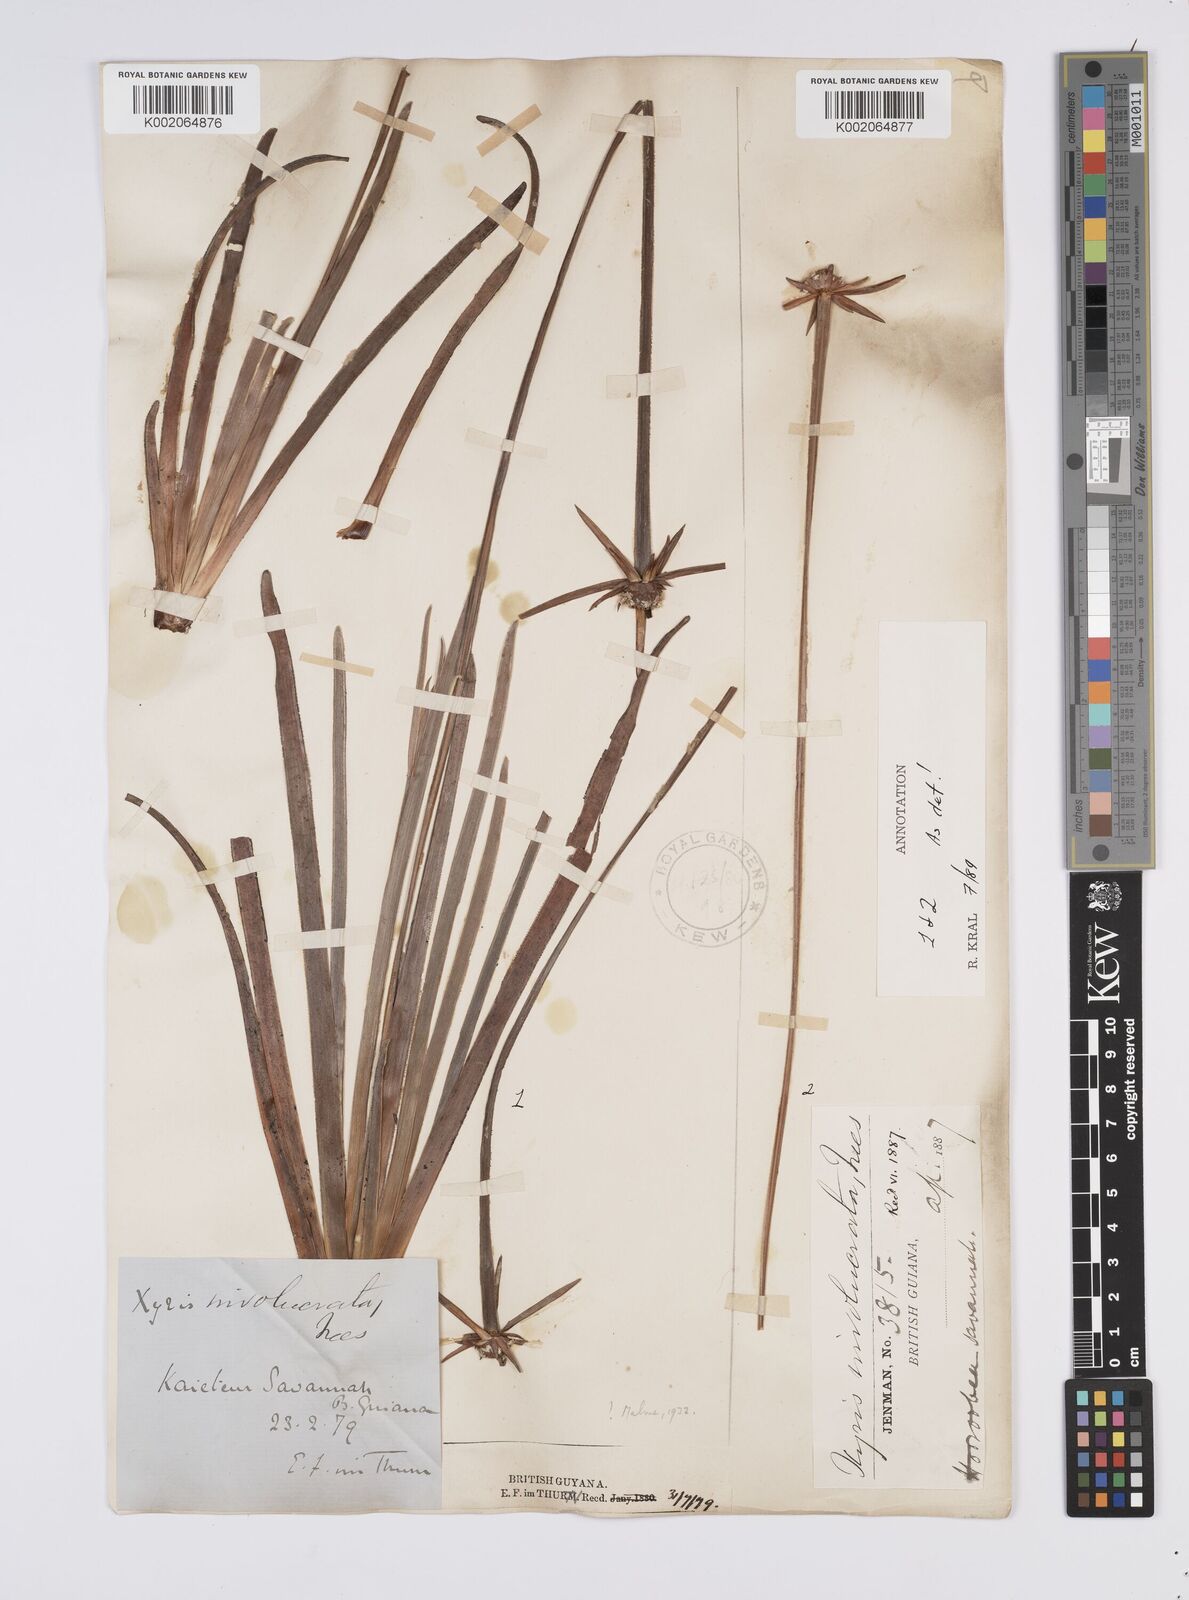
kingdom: Plantae
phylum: Tracheophyta
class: Liliopsida
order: Poales
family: Xyridaceae
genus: Xyris
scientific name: Xyris involucrata
